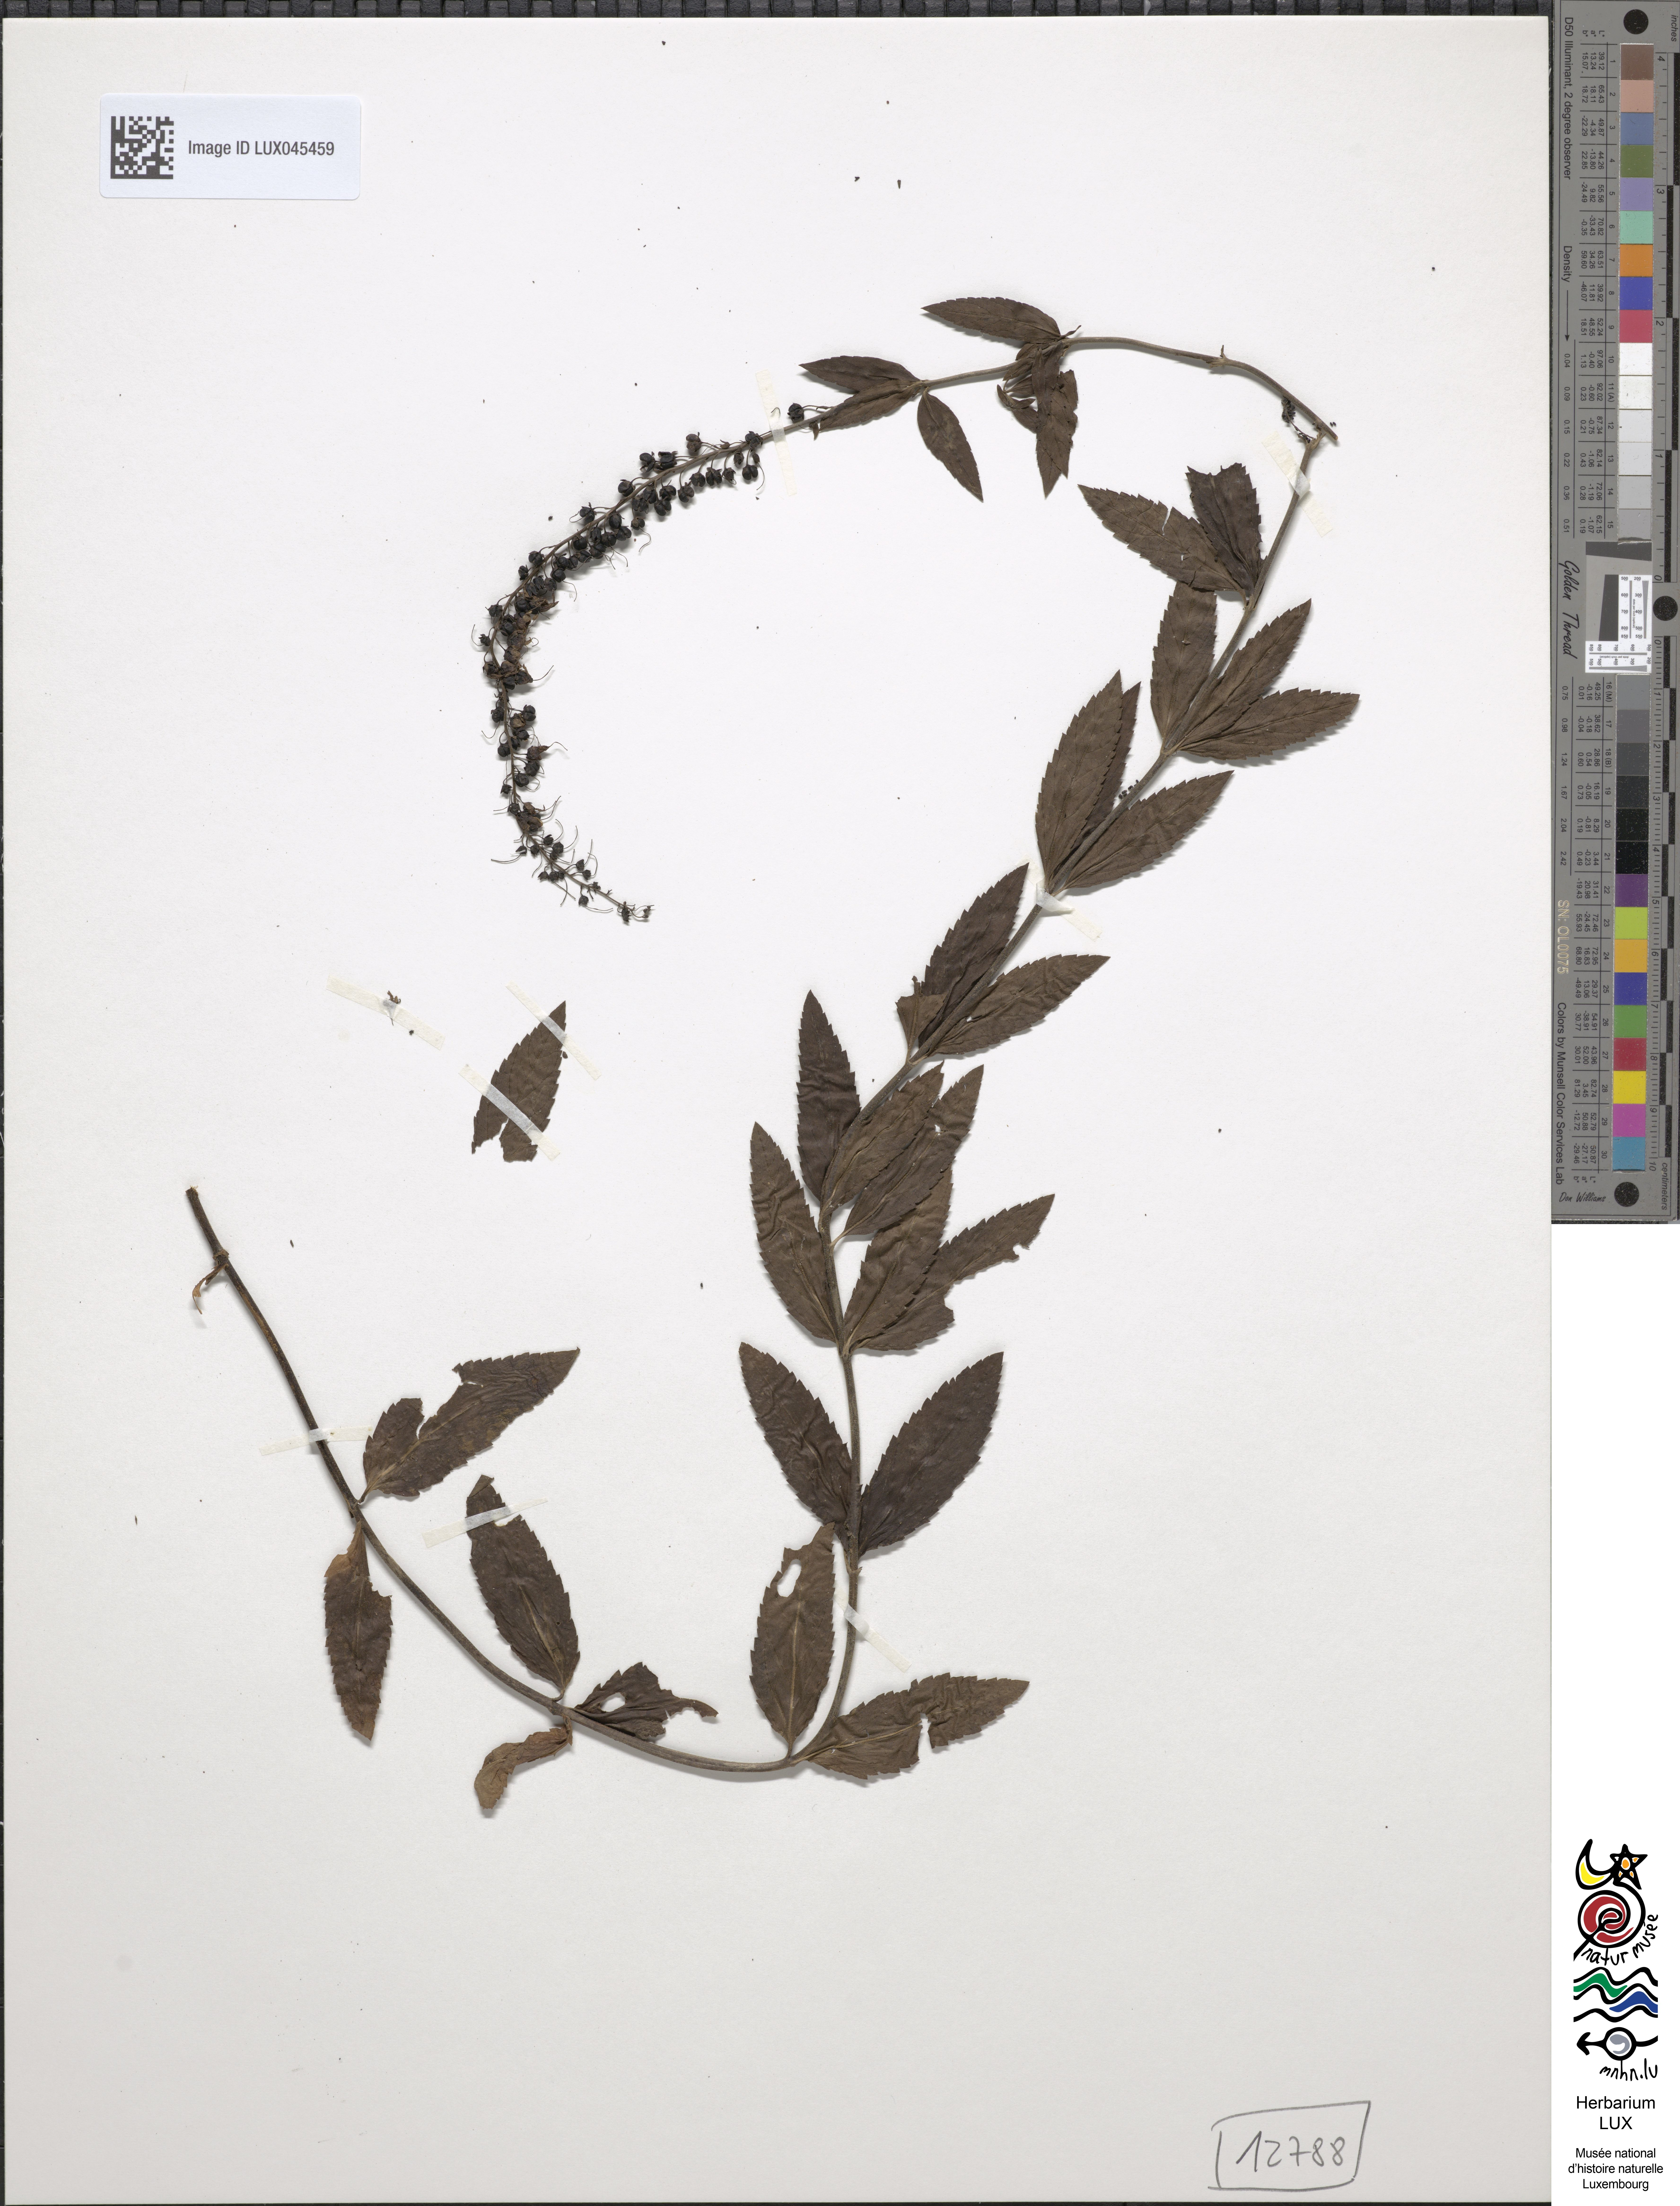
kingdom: Plantae
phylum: Tracheophyta
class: Magnoliopsida
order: Lamiales
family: Plantaginaceae
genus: Veronica
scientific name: Veronica spuria
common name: Bastard speedwell
